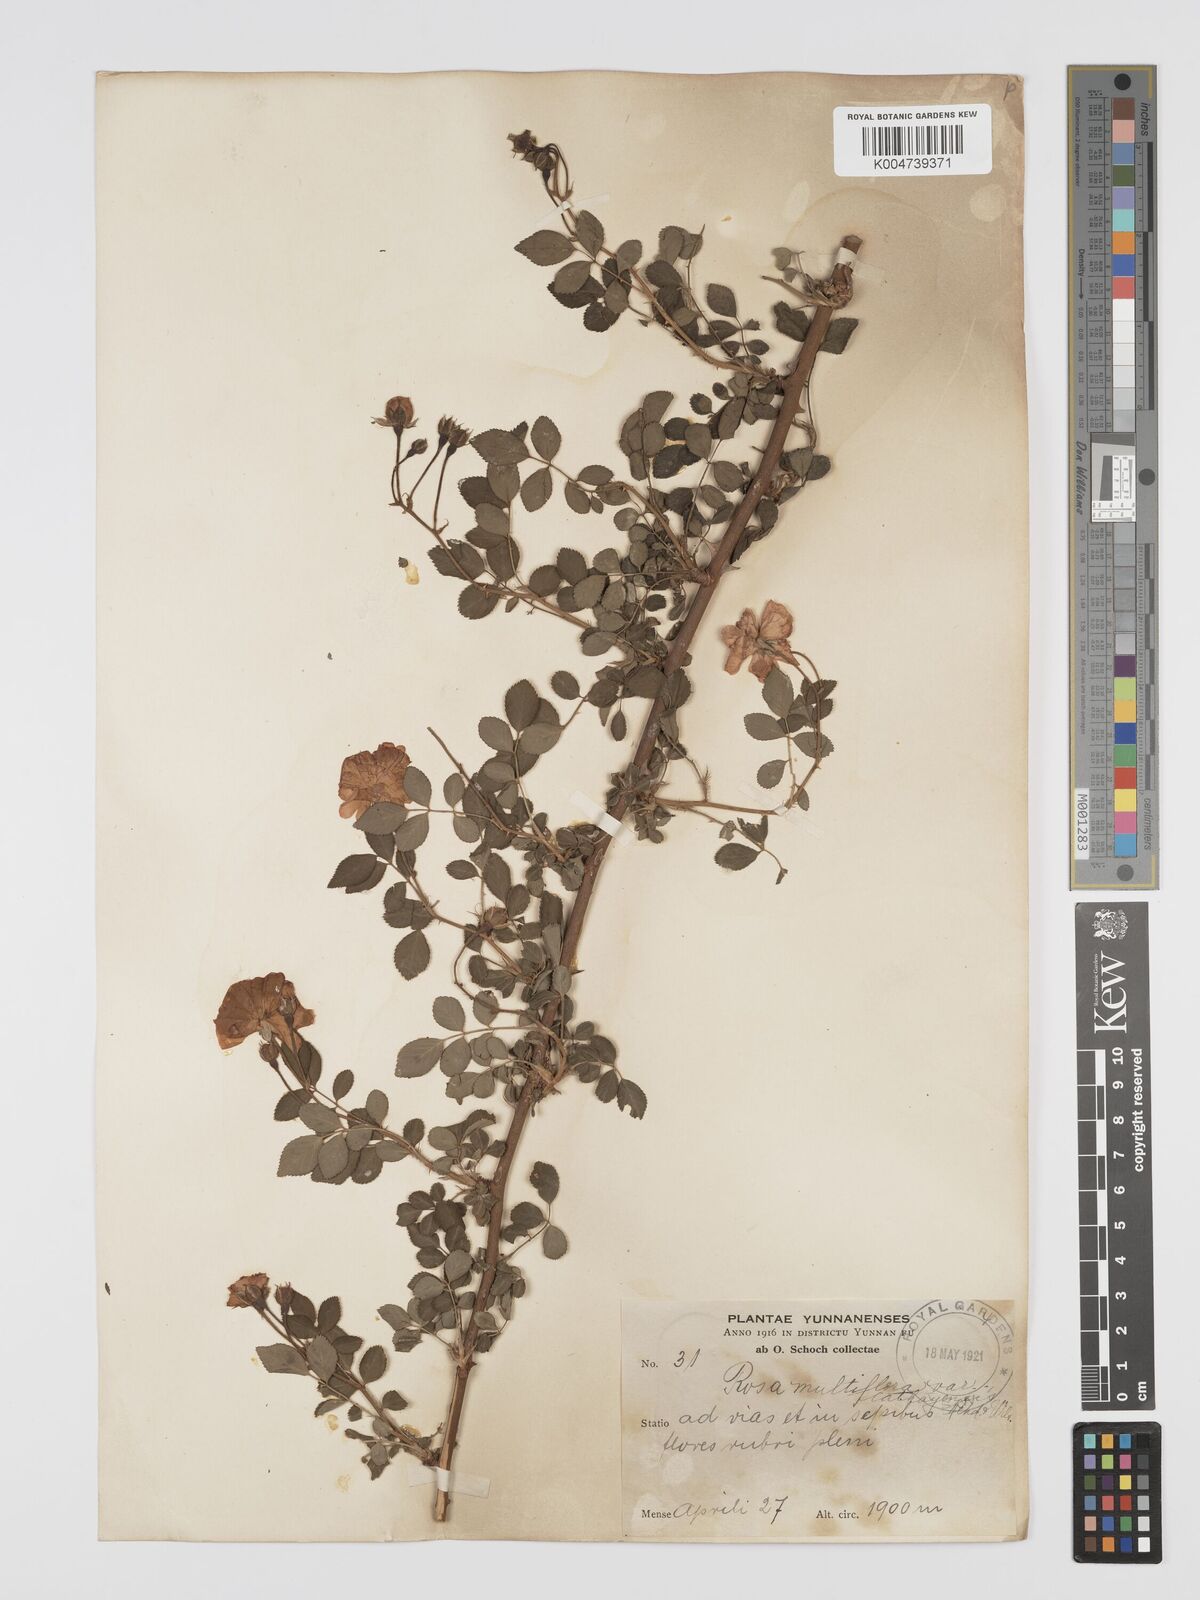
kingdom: Plantae
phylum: Tracheophyta
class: Magnoliopsida
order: Rosales
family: Rosaceae
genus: Rosa
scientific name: Rosa
